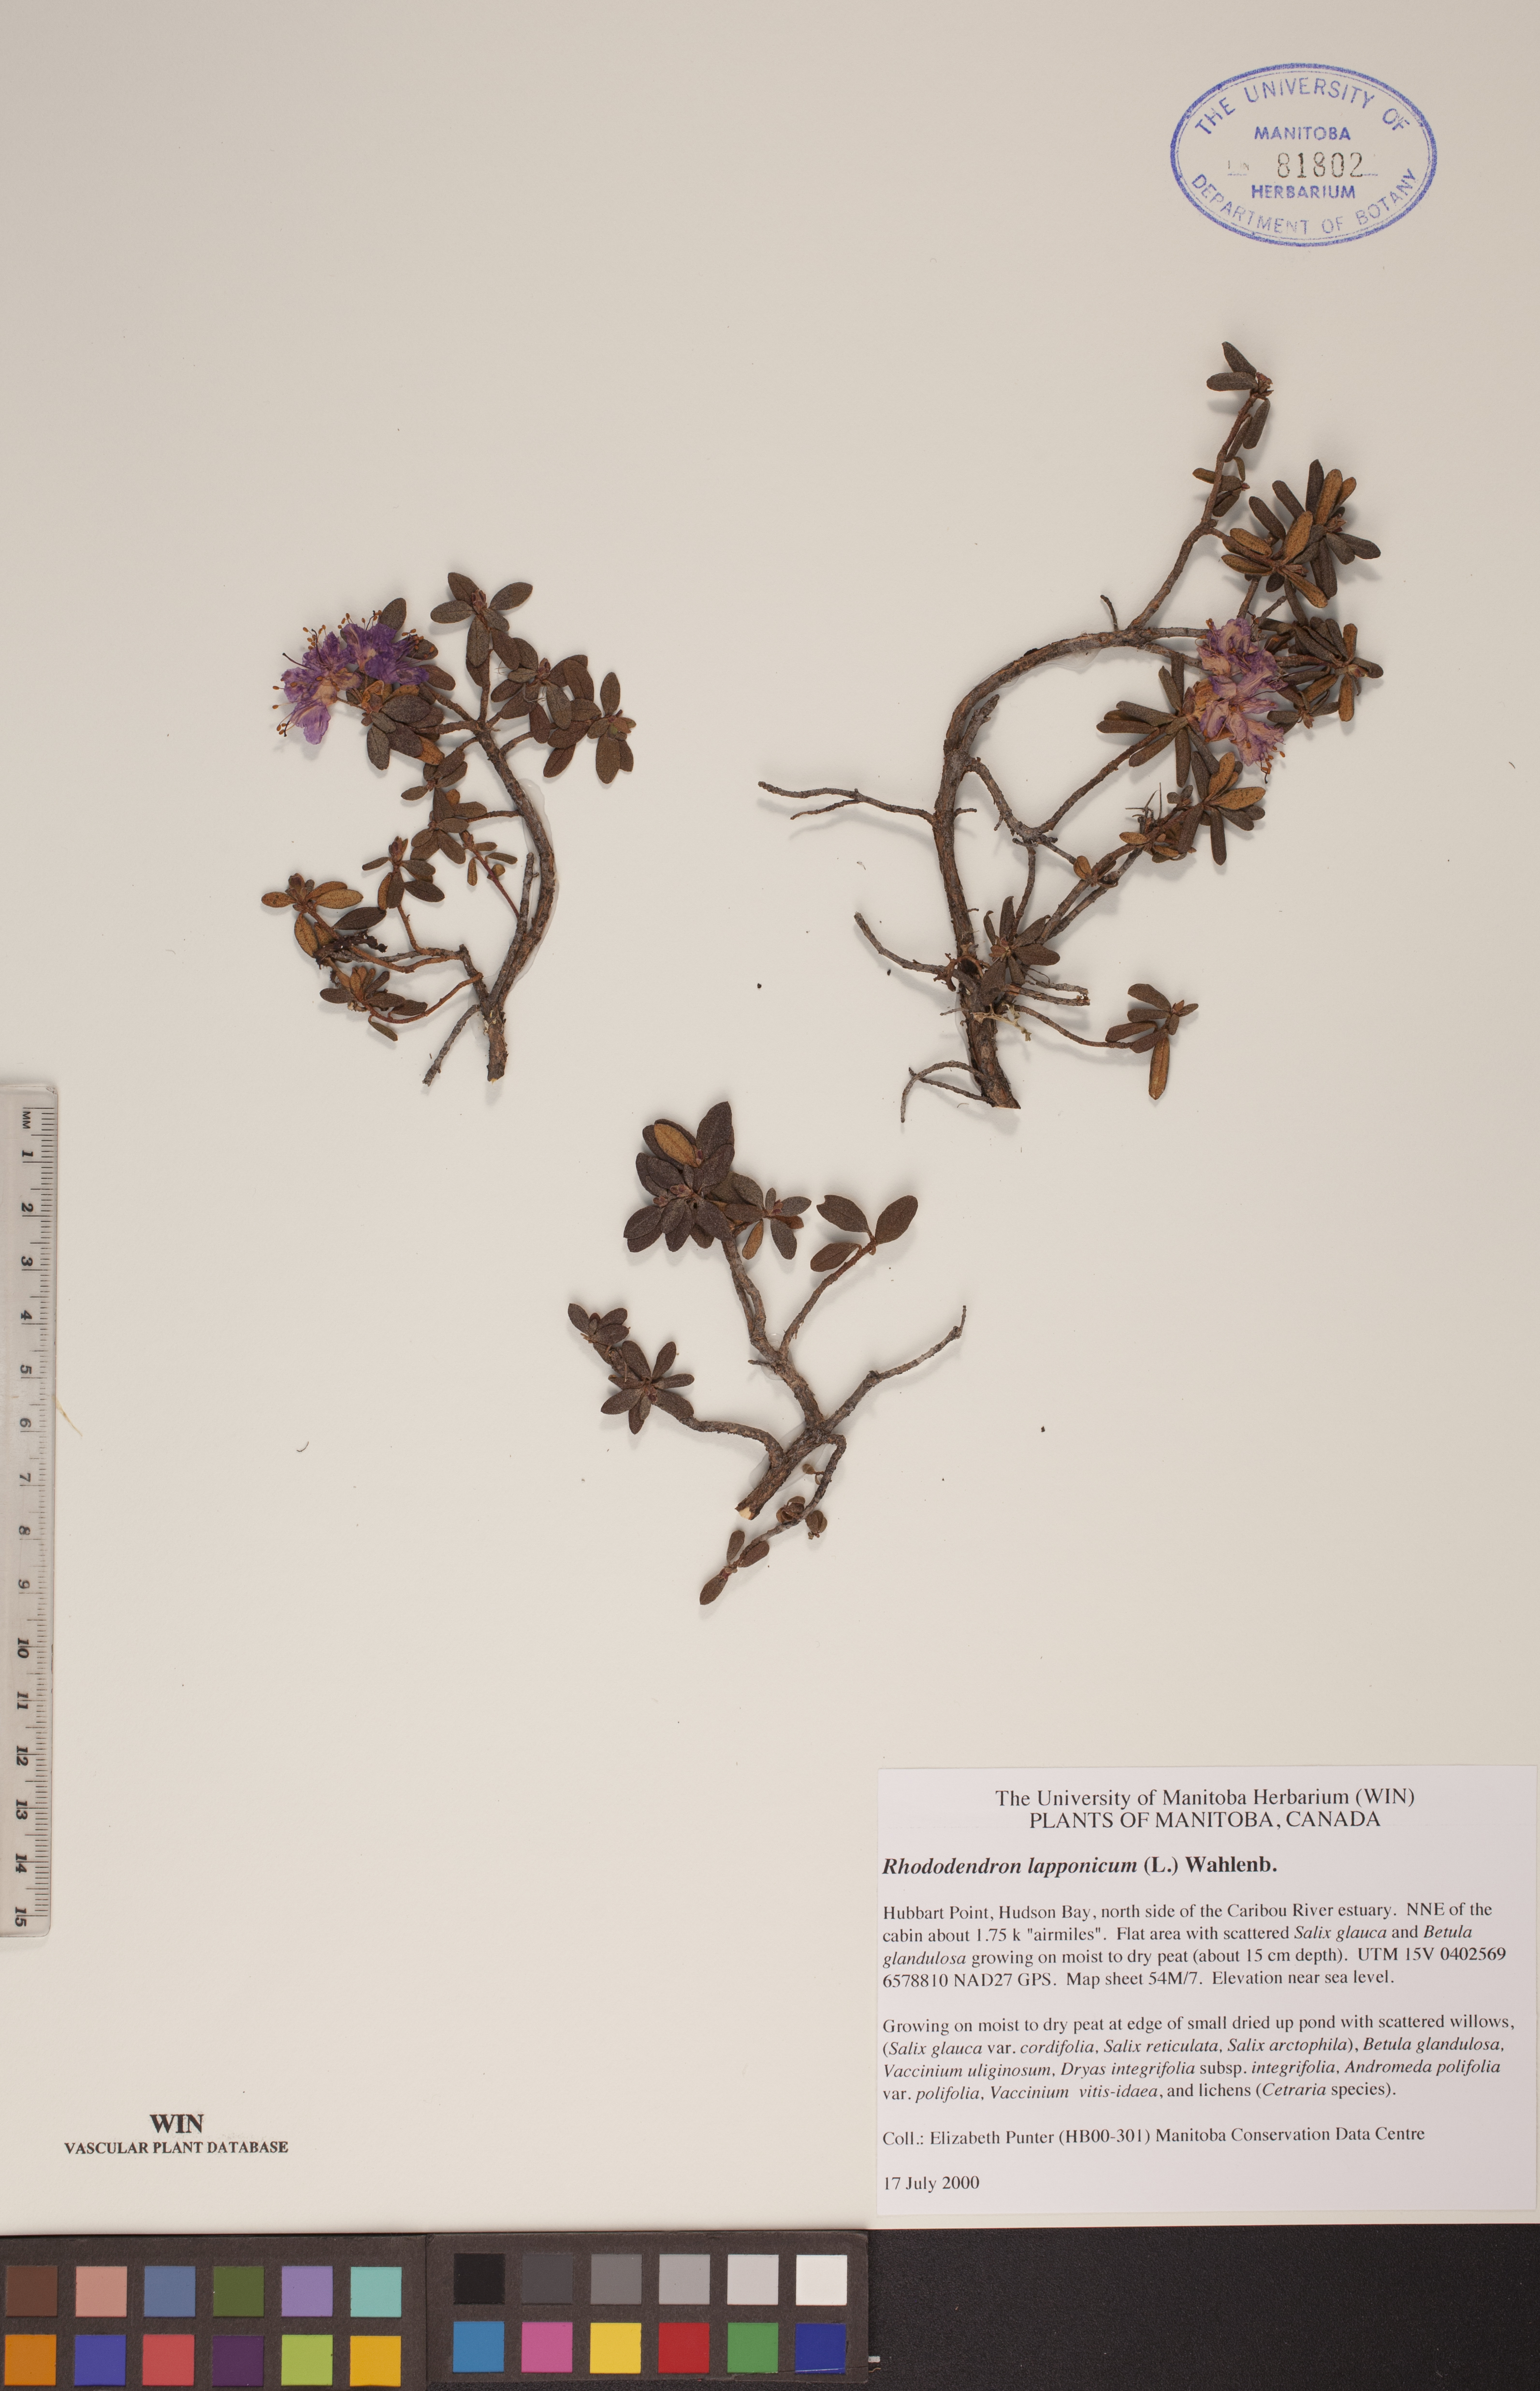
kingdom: Plantae
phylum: Tracheophyta
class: Magnoliopsida
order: Ericales
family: Ericaceae
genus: Rhododendron
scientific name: Rhododendron lapponicum
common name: Lapland rhododendron
